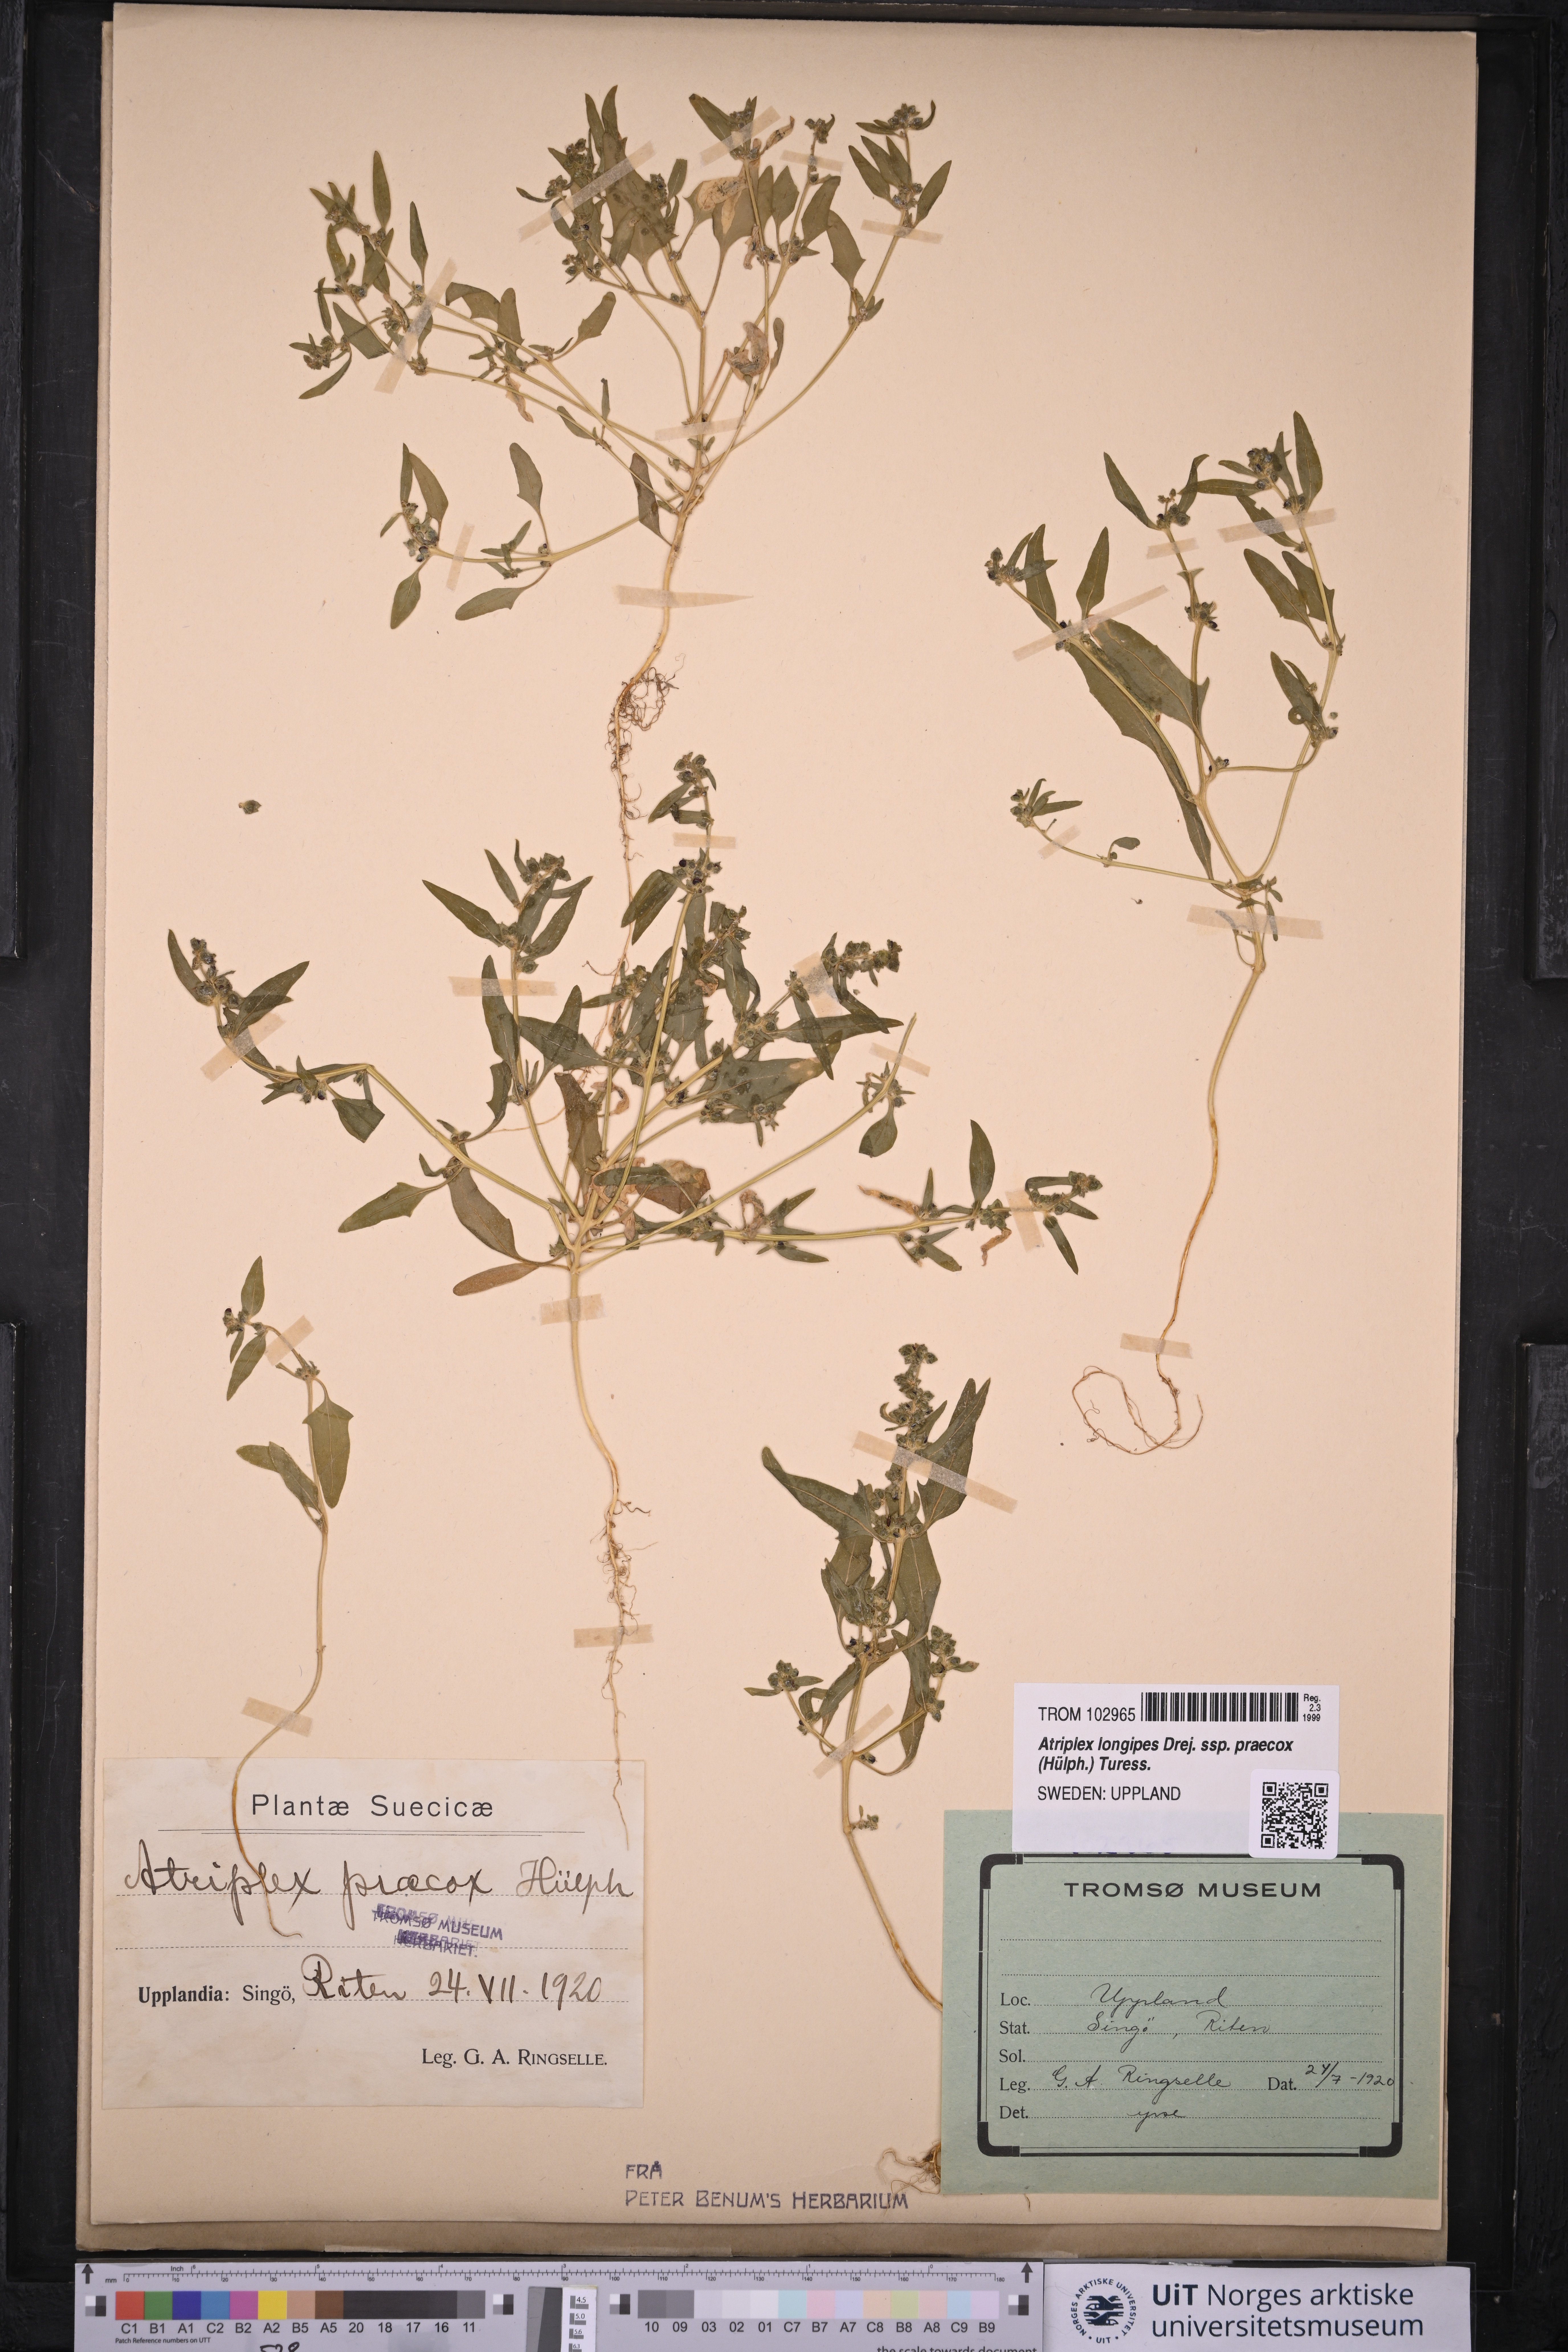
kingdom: Plantae
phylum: Tracheophyta
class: Magnoliopsida
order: Caryophyllales
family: Amaranthaceae
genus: Atriplex
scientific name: Atriplex praecox
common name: Early orache
